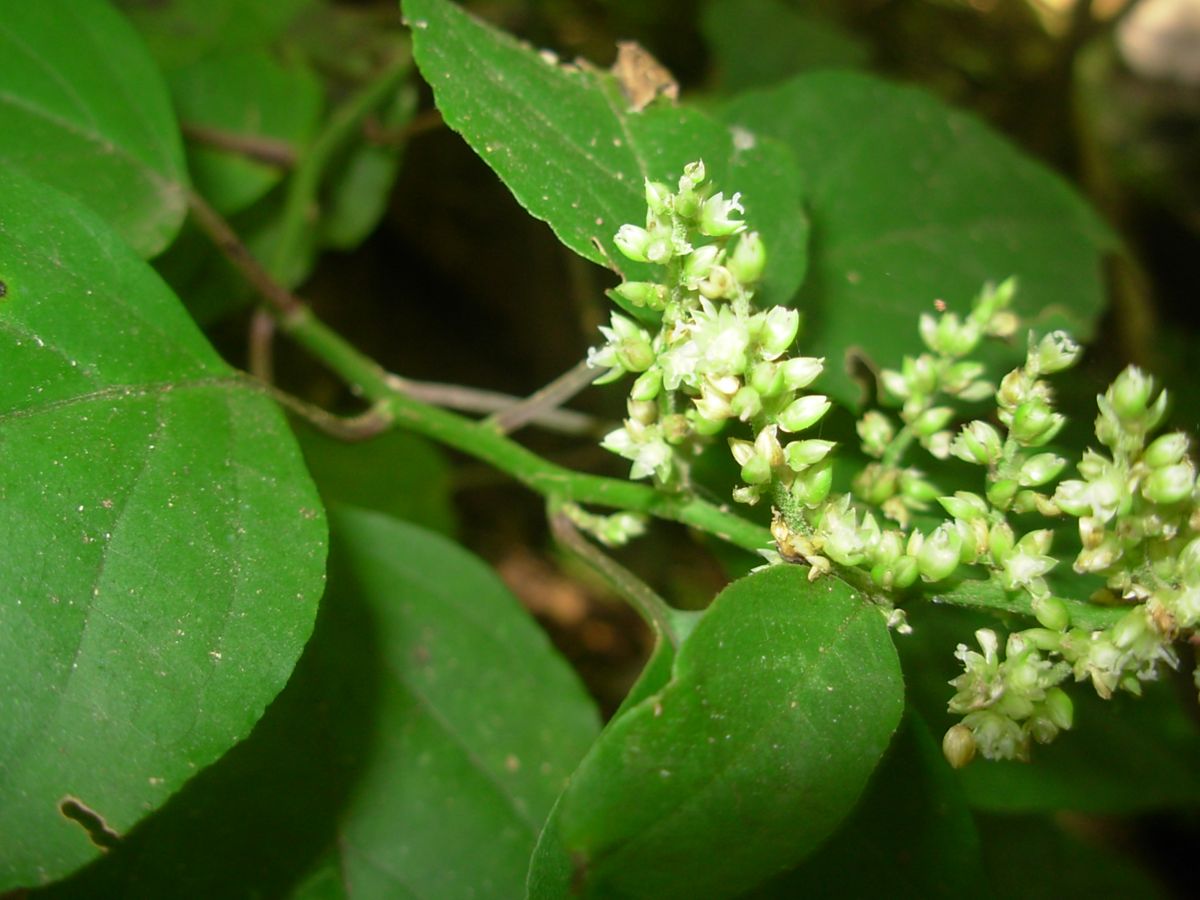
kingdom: Plantae
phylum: Tracheophyta
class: Magnoliopsida
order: Caryophyllales
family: Amaranthaceae
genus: Chamissoa
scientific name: Chamissoa altissima
